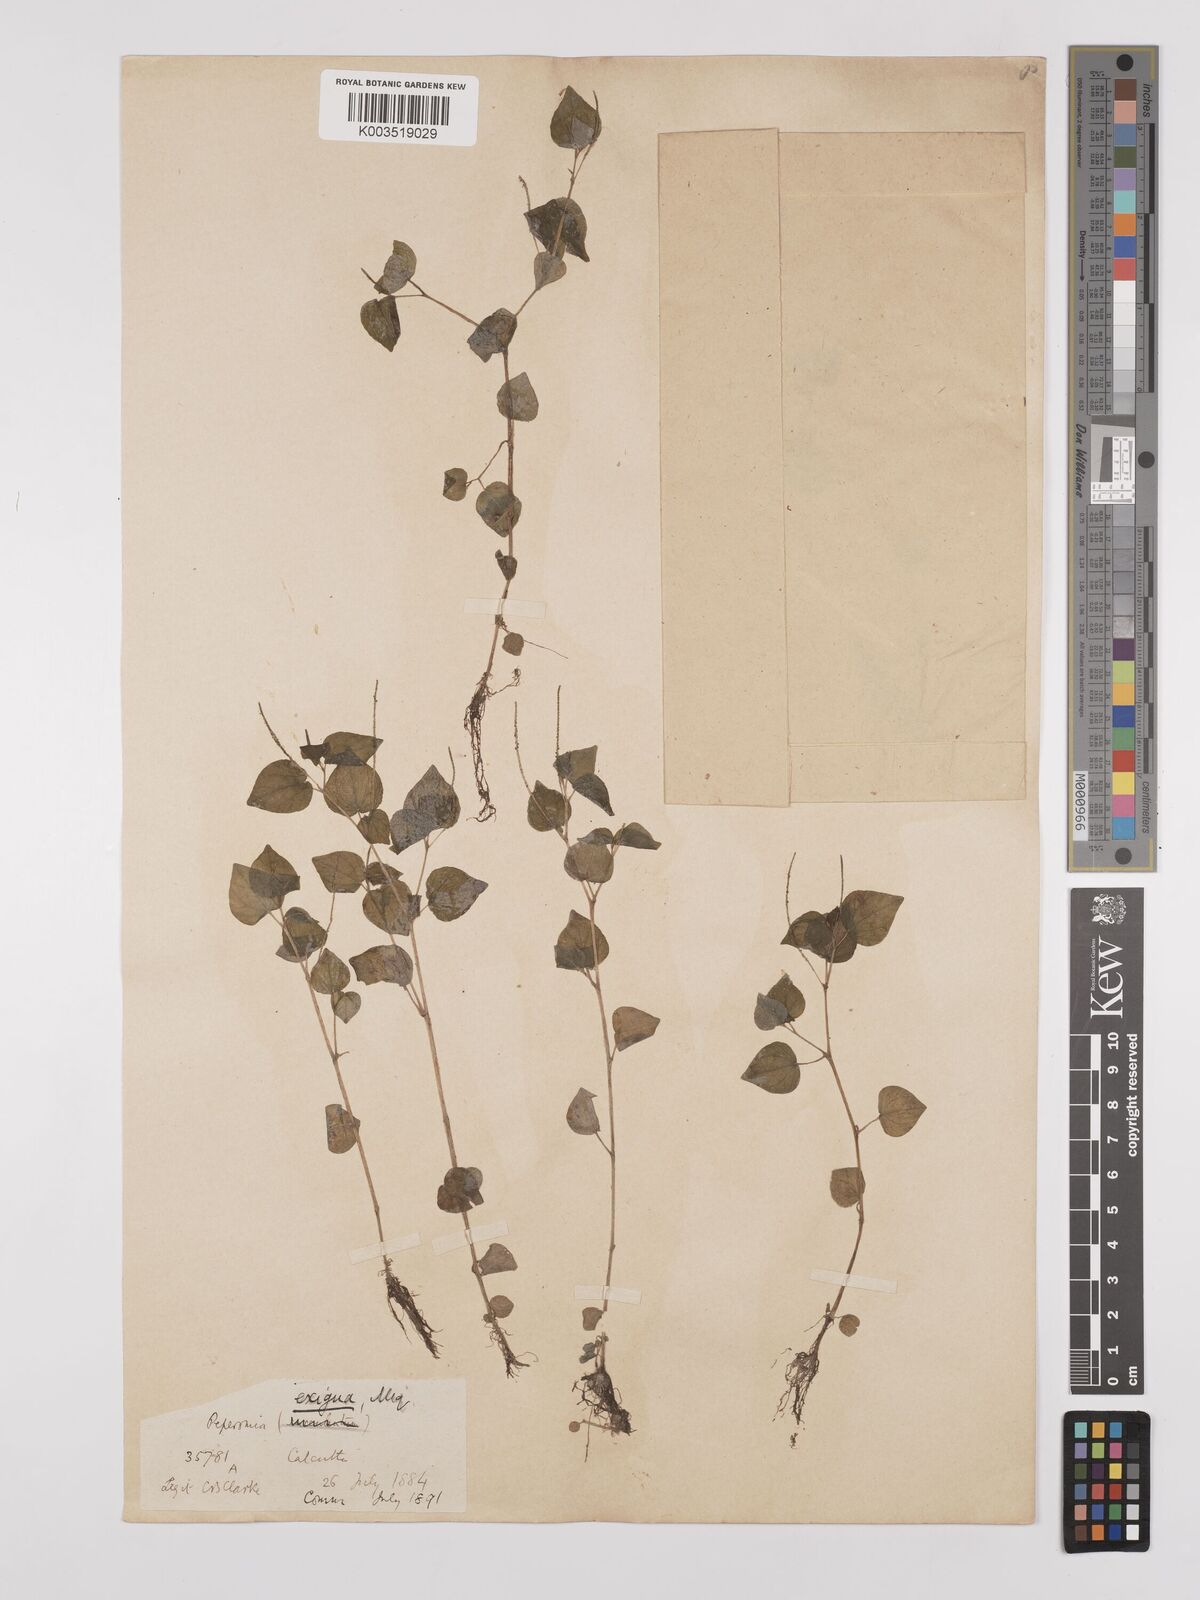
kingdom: Plantae
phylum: Tracheophyta
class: Magnoliopsida
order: Piperales
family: Piperaceae
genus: Peperomia
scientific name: Peperomia pellucida
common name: Man to man
